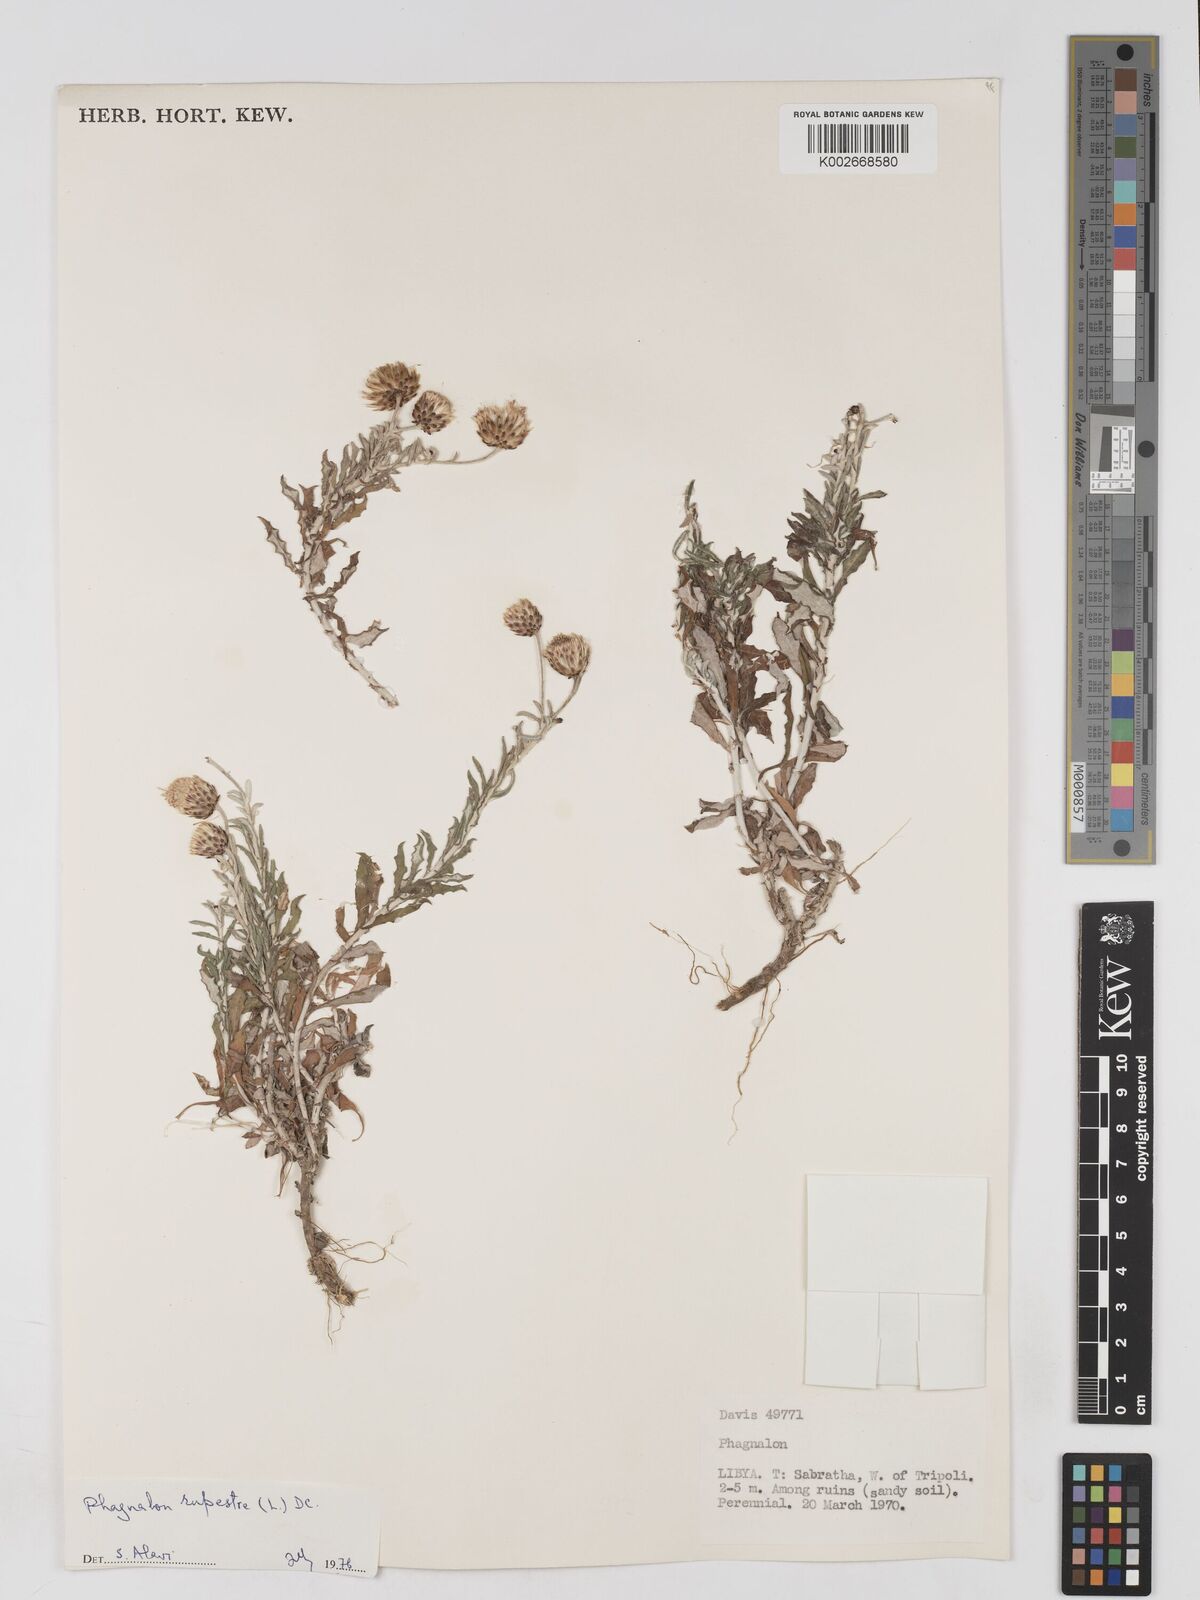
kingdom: Plantae
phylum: Tracheophyta
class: Magnoliopsida
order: Asterales
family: Asteraceae
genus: Phagnalon
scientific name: Phagnalon rupestre
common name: Rock phagnalon
